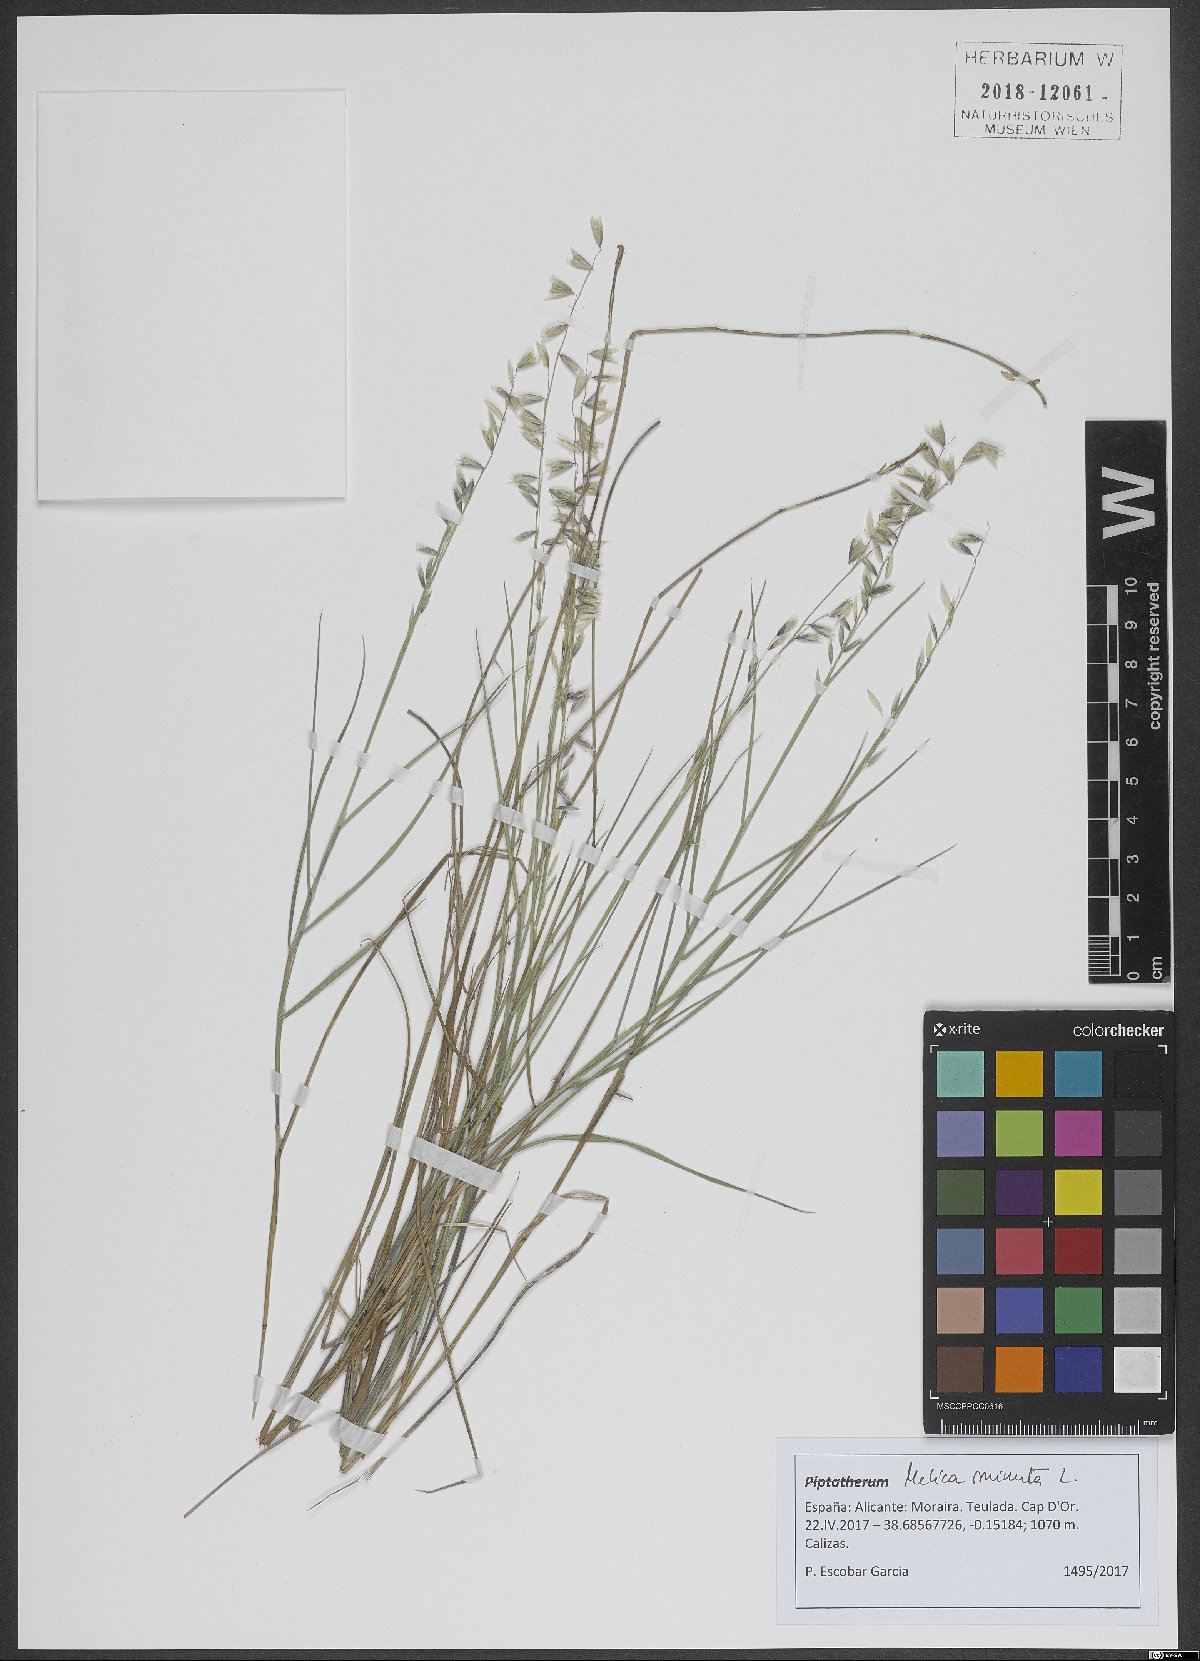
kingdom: Plantae
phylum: Tracheophyta
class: Liliopsida
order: Poales
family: Poaceae
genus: Melica
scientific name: Melica minuta
